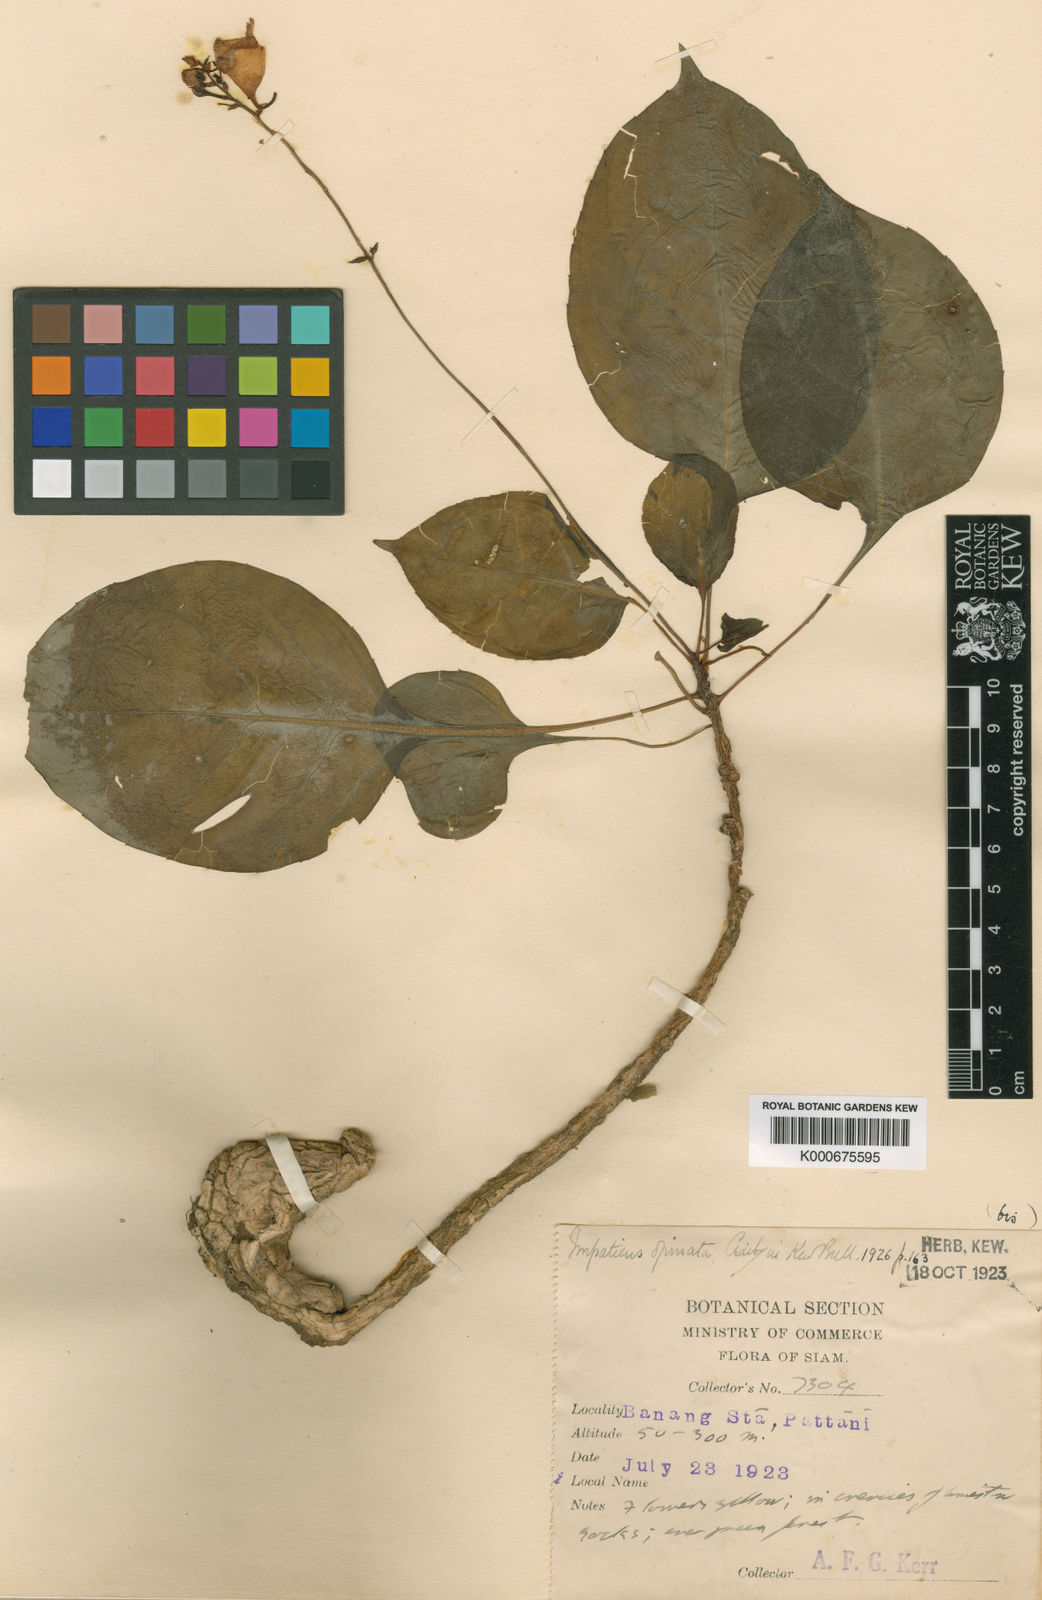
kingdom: Plantae
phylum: Tracheophyta
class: Magnoliopsida
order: Ericales
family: Balsaminaceae
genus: Impatiens
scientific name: Impatiens opinata
